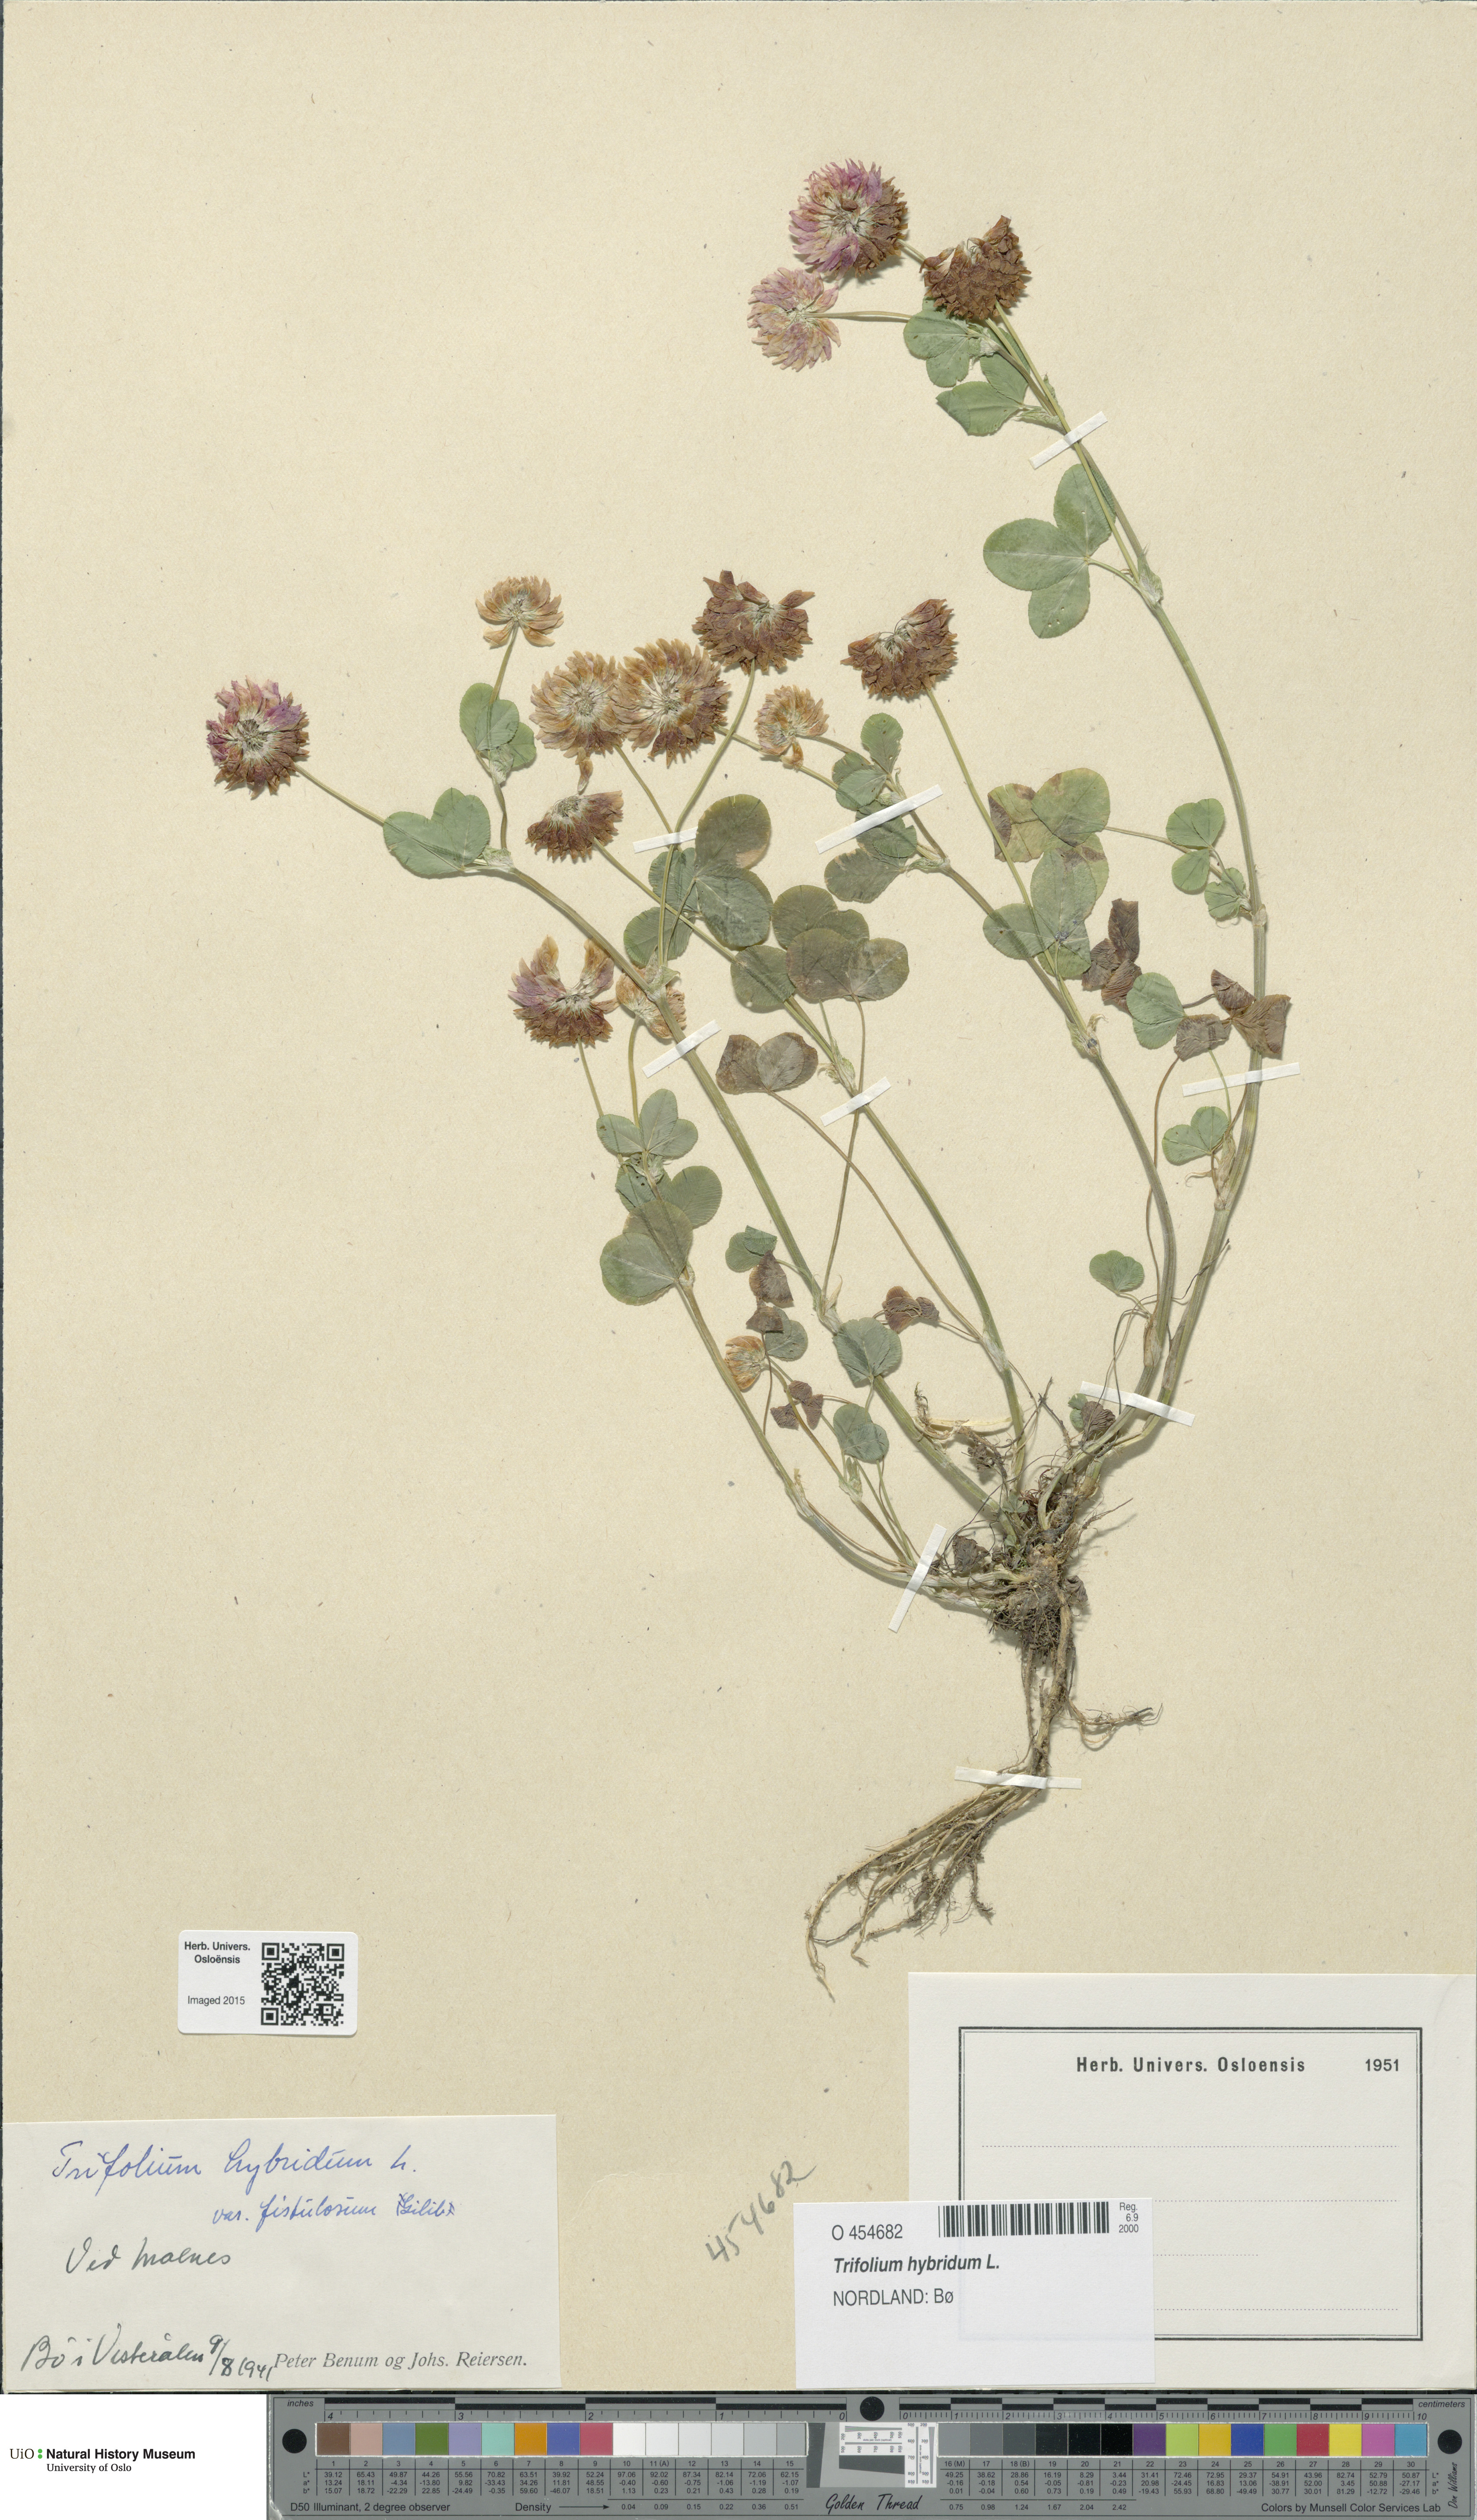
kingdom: Plantae
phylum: Tracheophyta
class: Magnoliopsida
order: Fabales
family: Fabaceae
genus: Trifolium
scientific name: Trifolium hybridum
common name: Alsike clover
